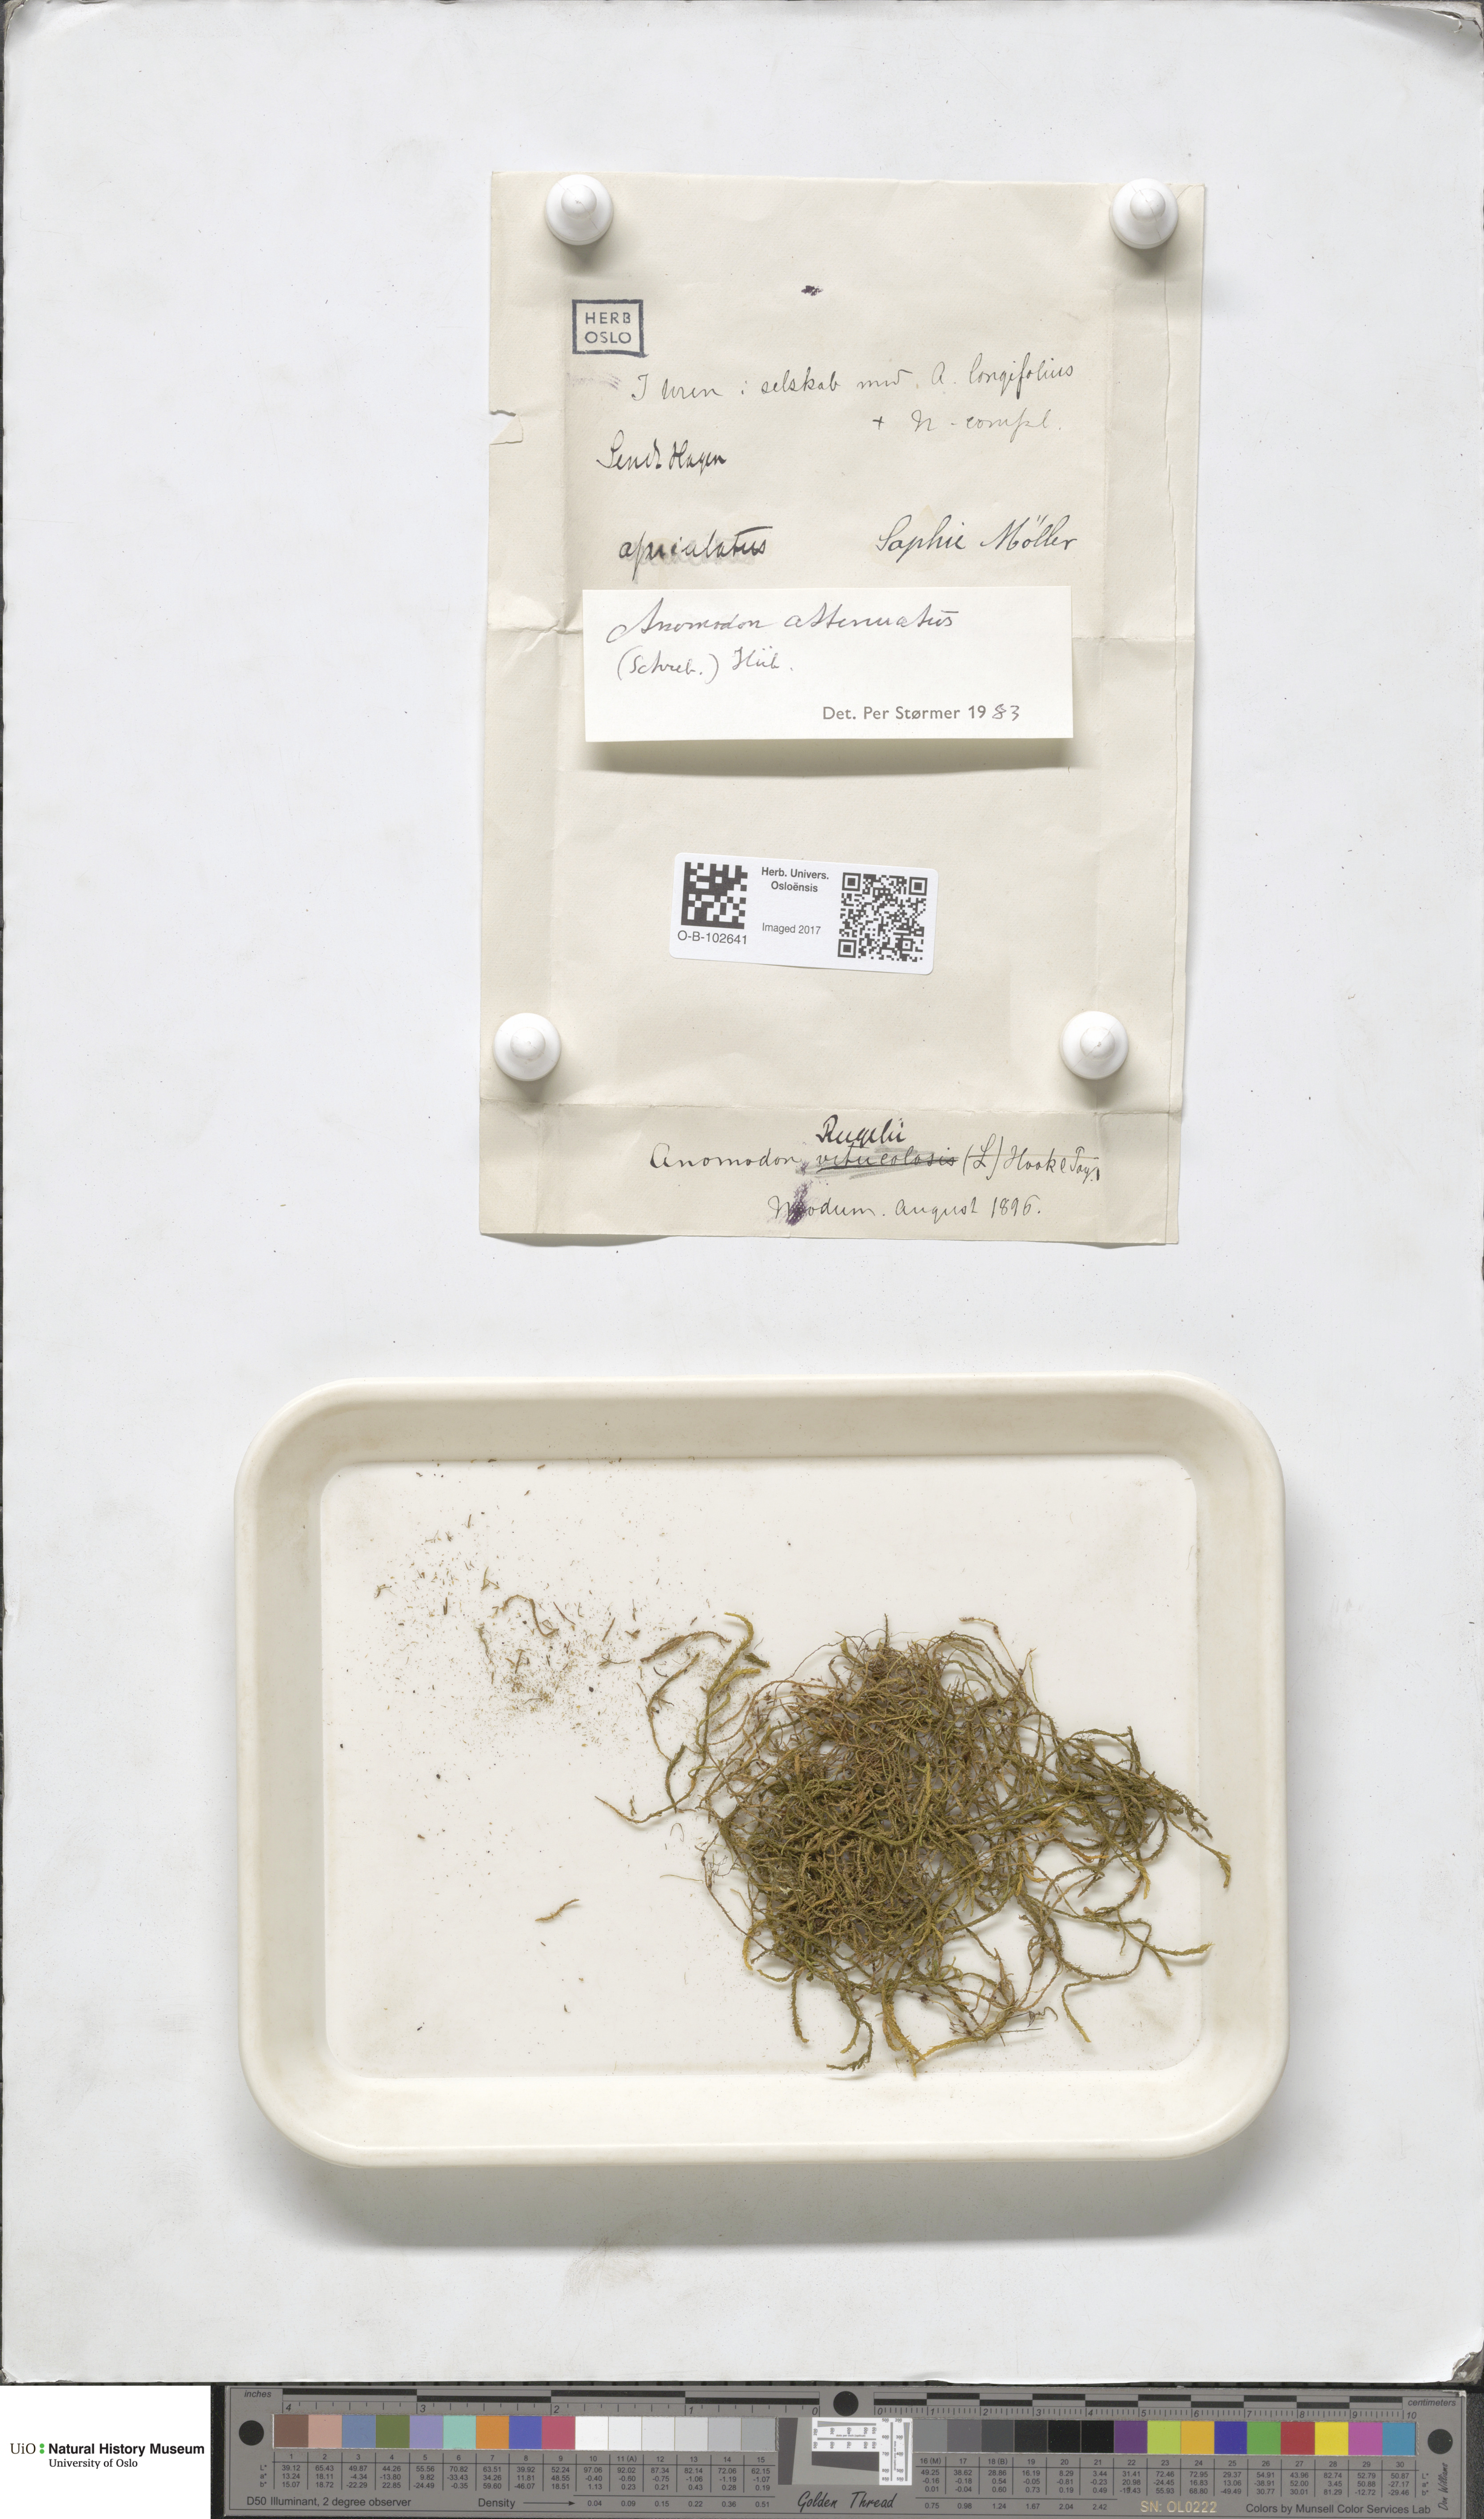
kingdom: Plantae
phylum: Bryophyta
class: Bryopsida
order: Hypnales
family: Neckeraceae
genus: Pseudanomodon
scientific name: Pseudanomodon attenuatus
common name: Tree-skirt moss
